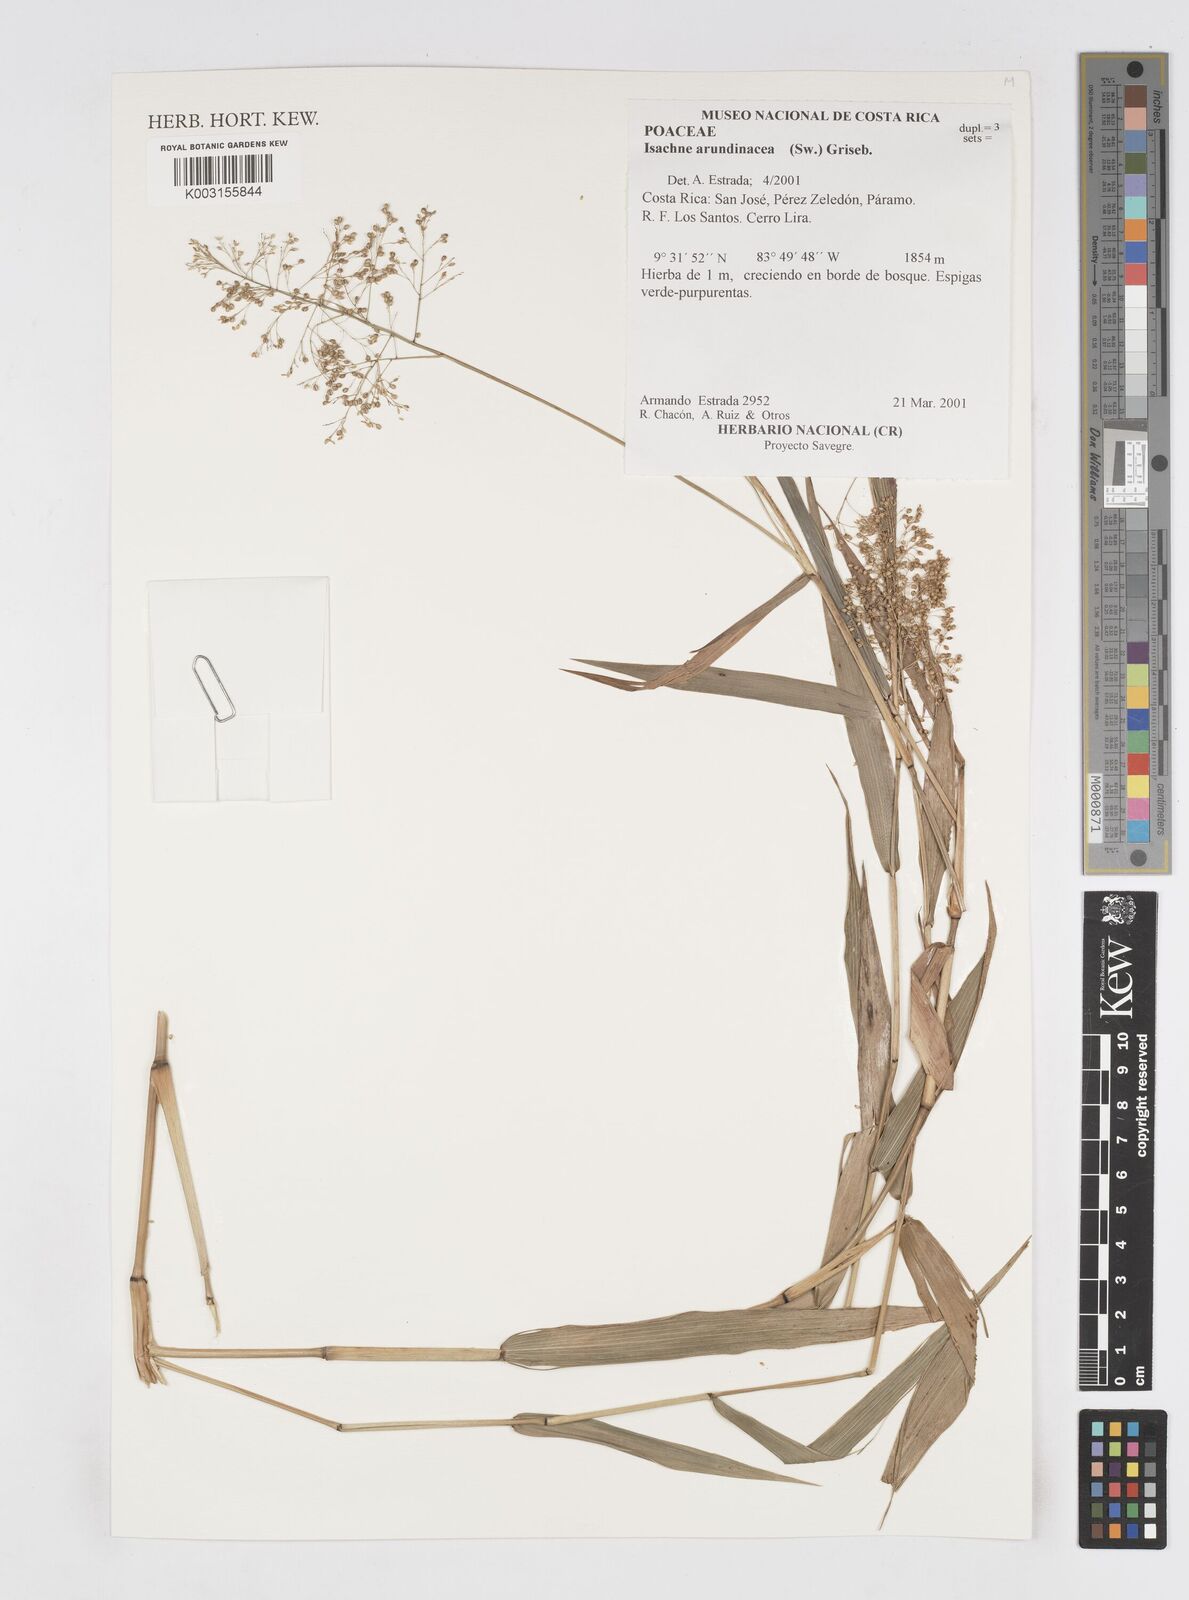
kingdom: Plantae
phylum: Tracheophyta
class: Liliopsida
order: Poales
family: Poaceae
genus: Isachne
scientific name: Isachne arundinacea
